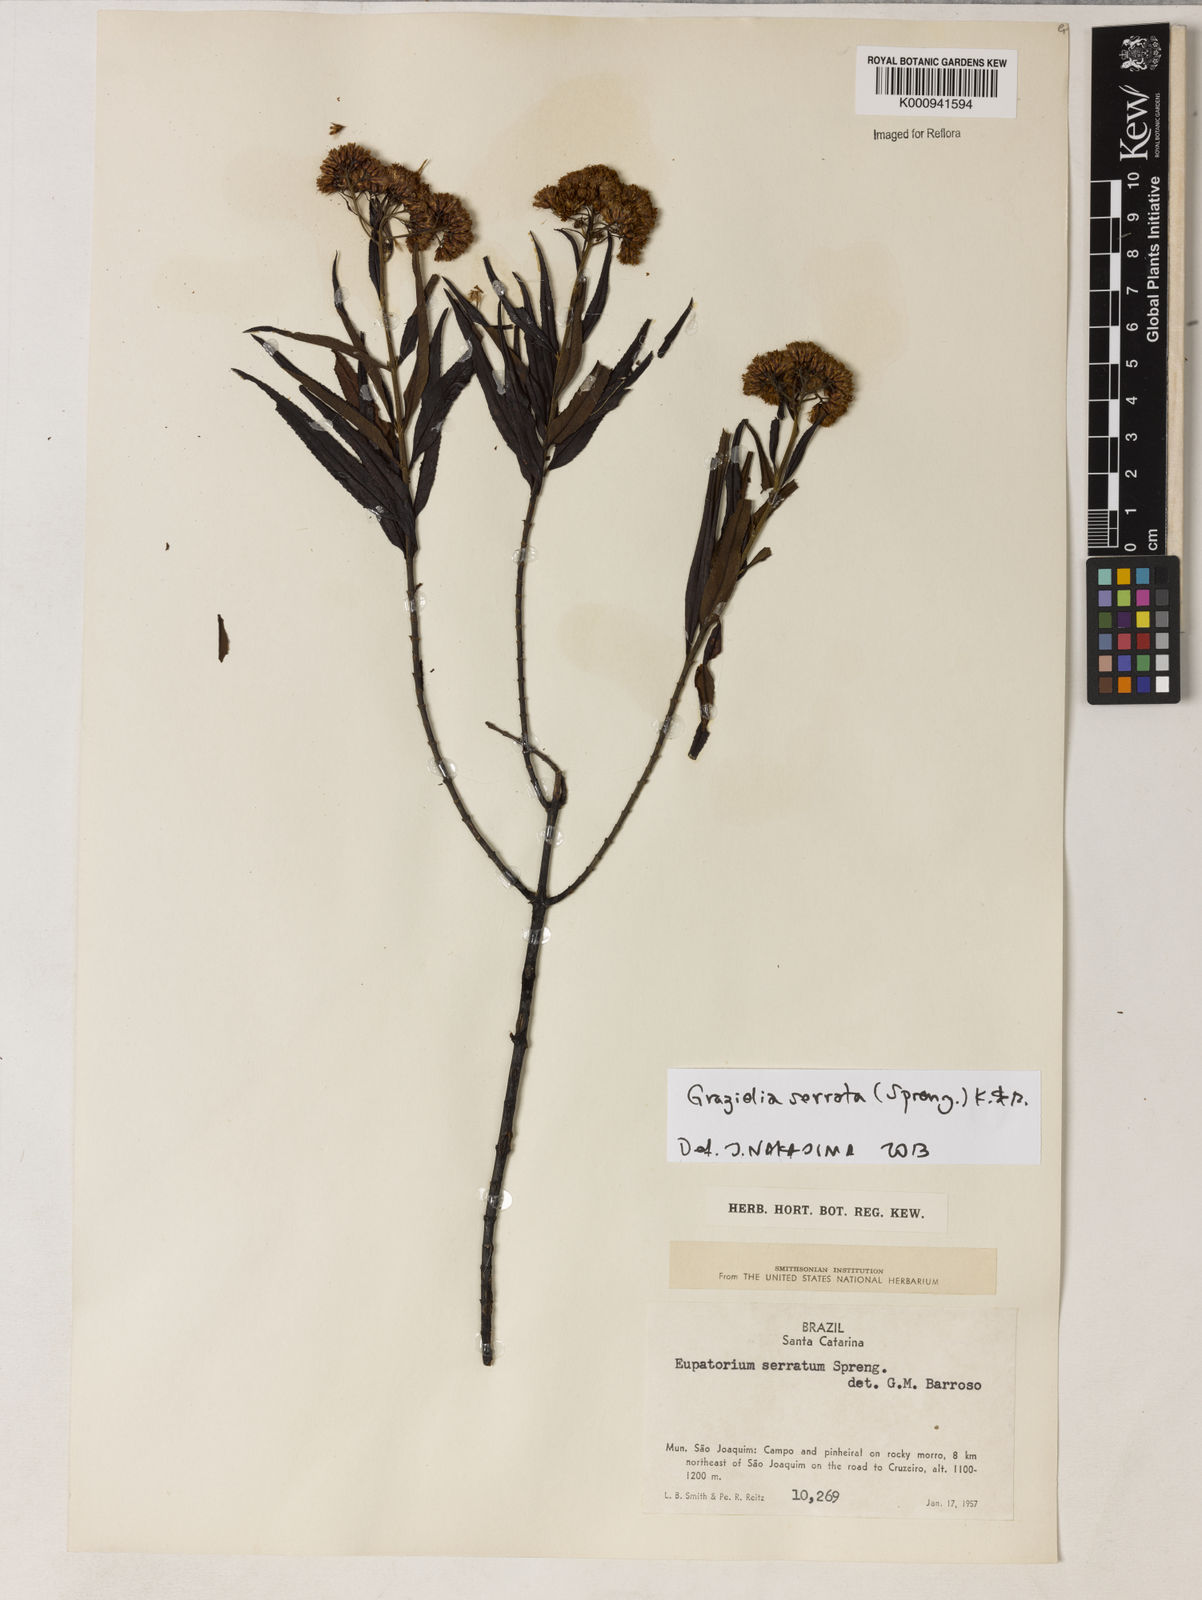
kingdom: Plantae
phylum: Tracheophyta
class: Magnoliopsida
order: Asterales
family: Asteraceae
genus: Grazielia
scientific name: Grazielia serrata
